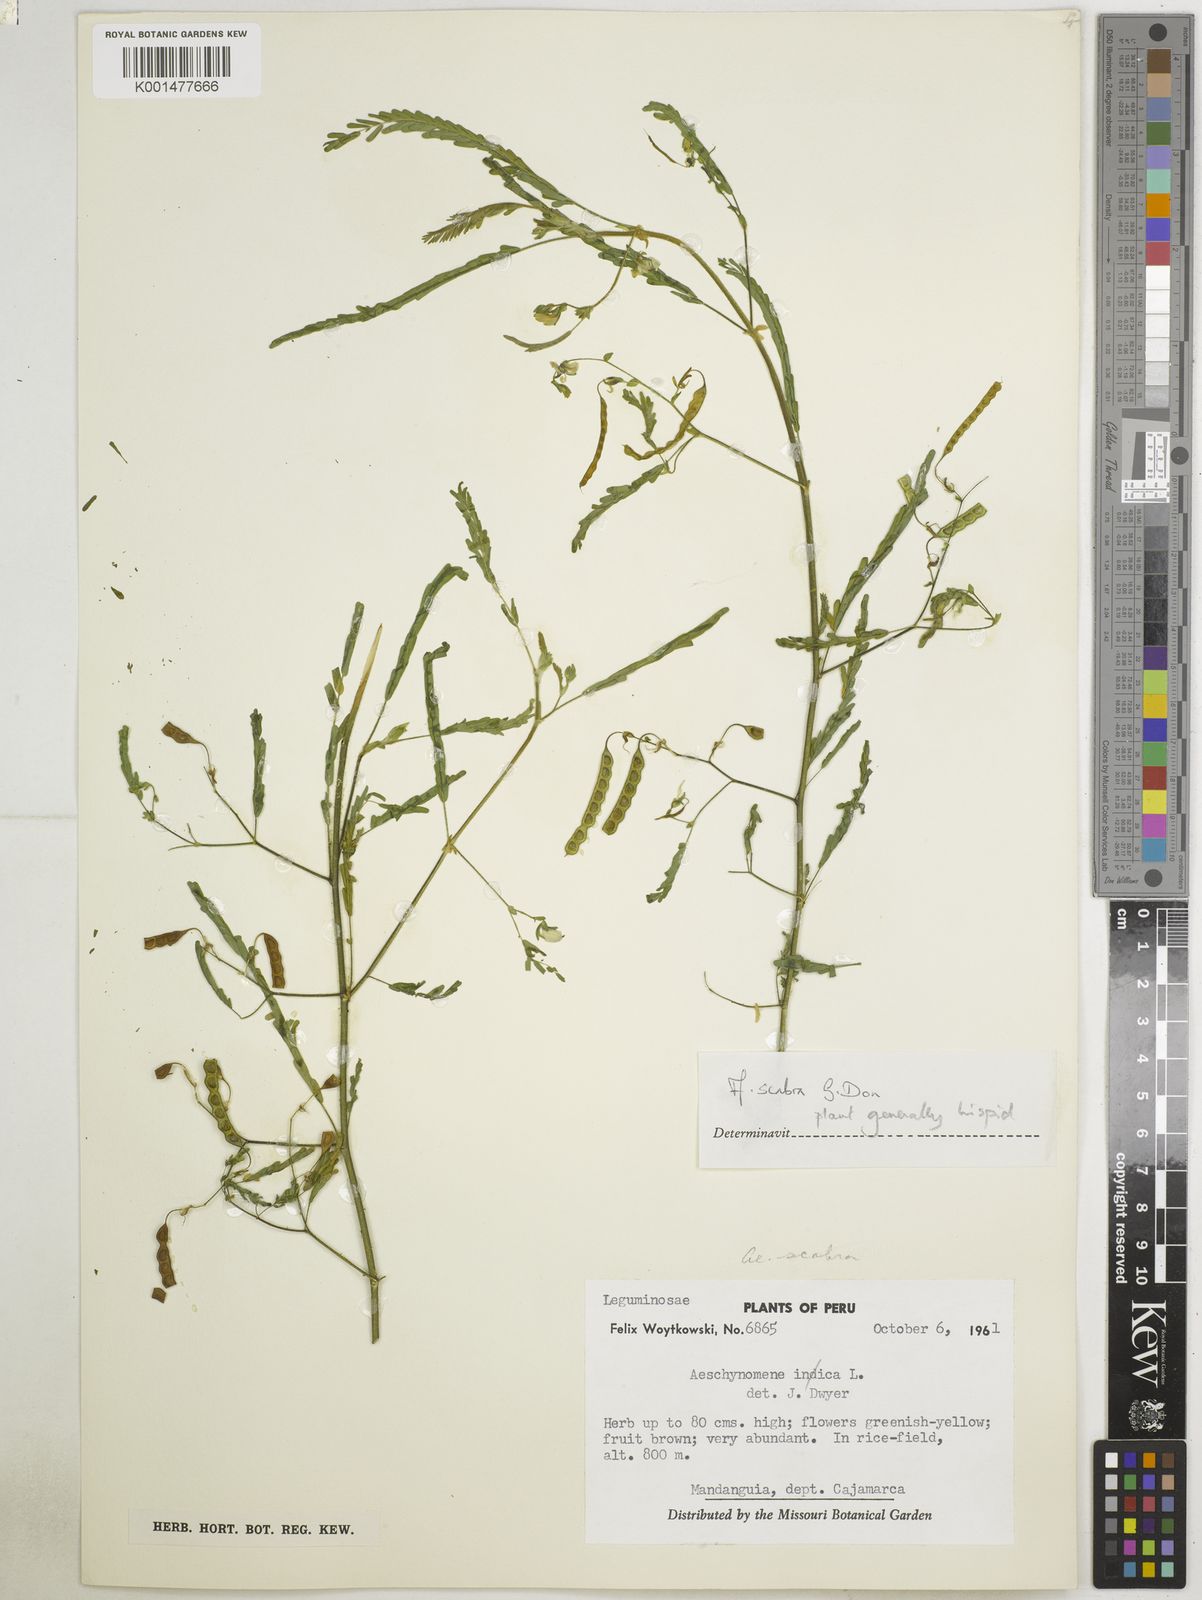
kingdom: Plantae
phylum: Tracheophyta
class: Magnoliopsida
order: Fabales
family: Fabaceae
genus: Aeschynomene
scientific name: Aeschynomene scabra
